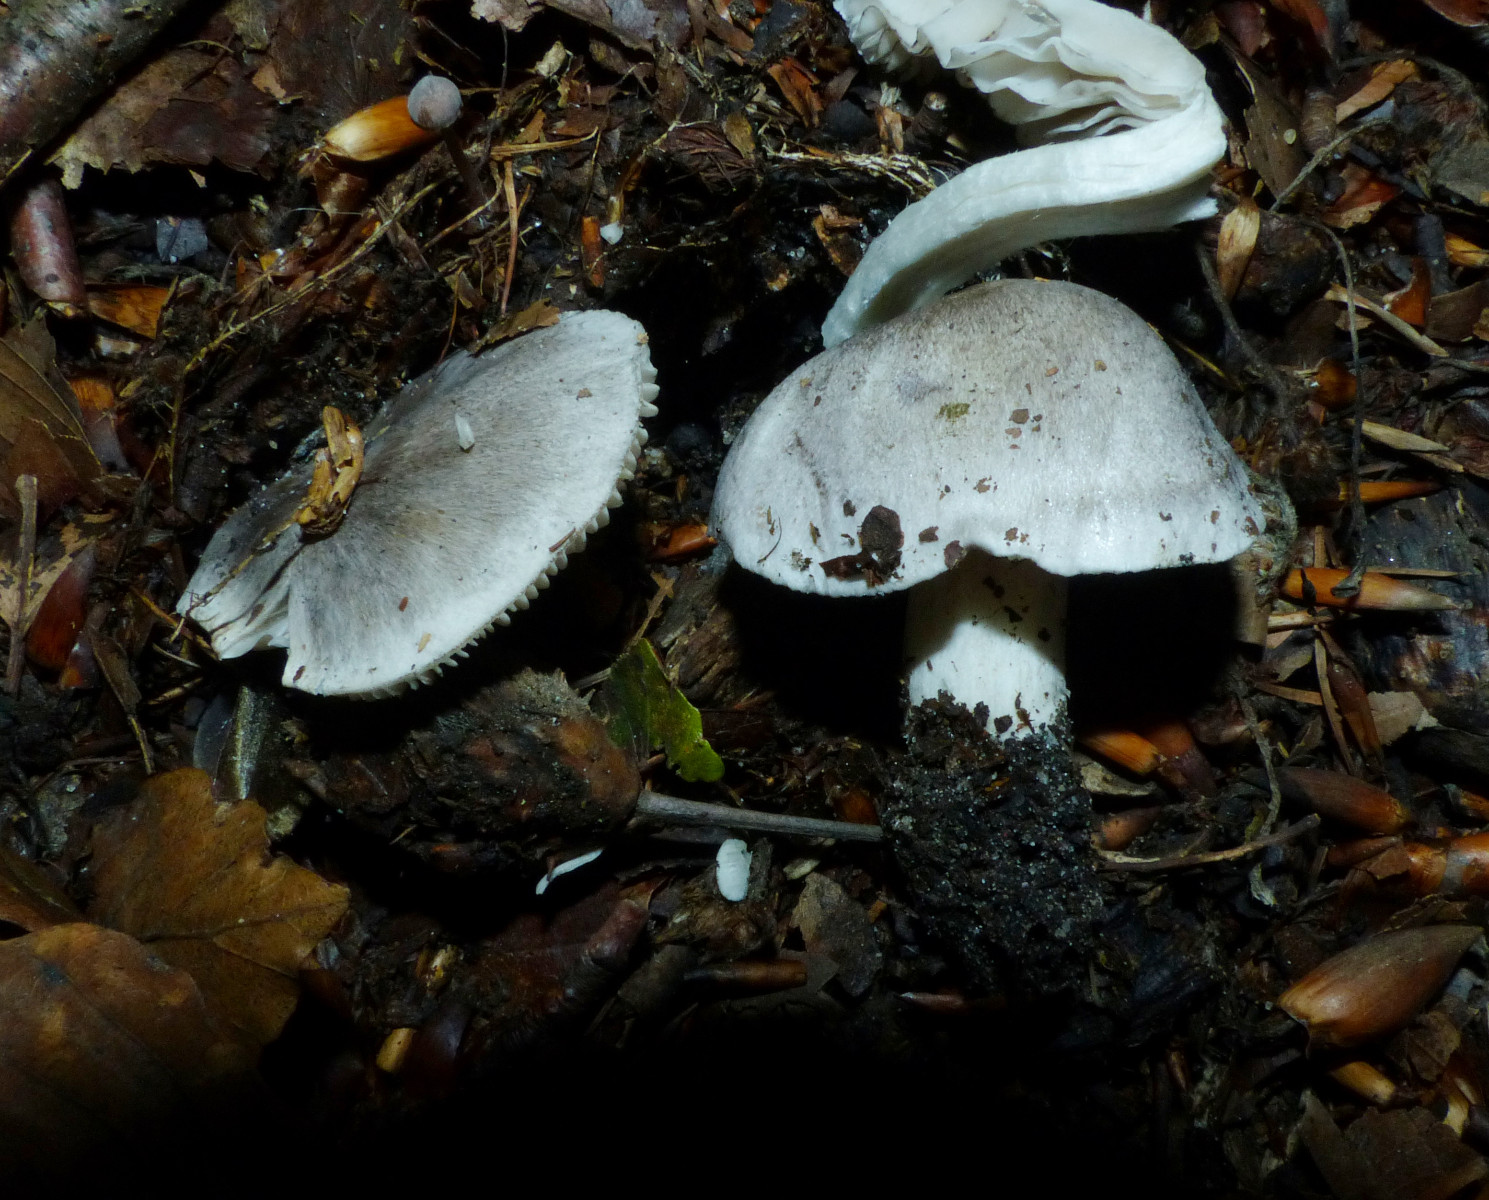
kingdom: Fungi
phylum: Basidiomycota
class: Agaricomycetes
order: Agaricales
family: Tricholomataceae
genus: Tricholoma
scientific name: Tricholoma sciodes
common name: stribet ridderhat
